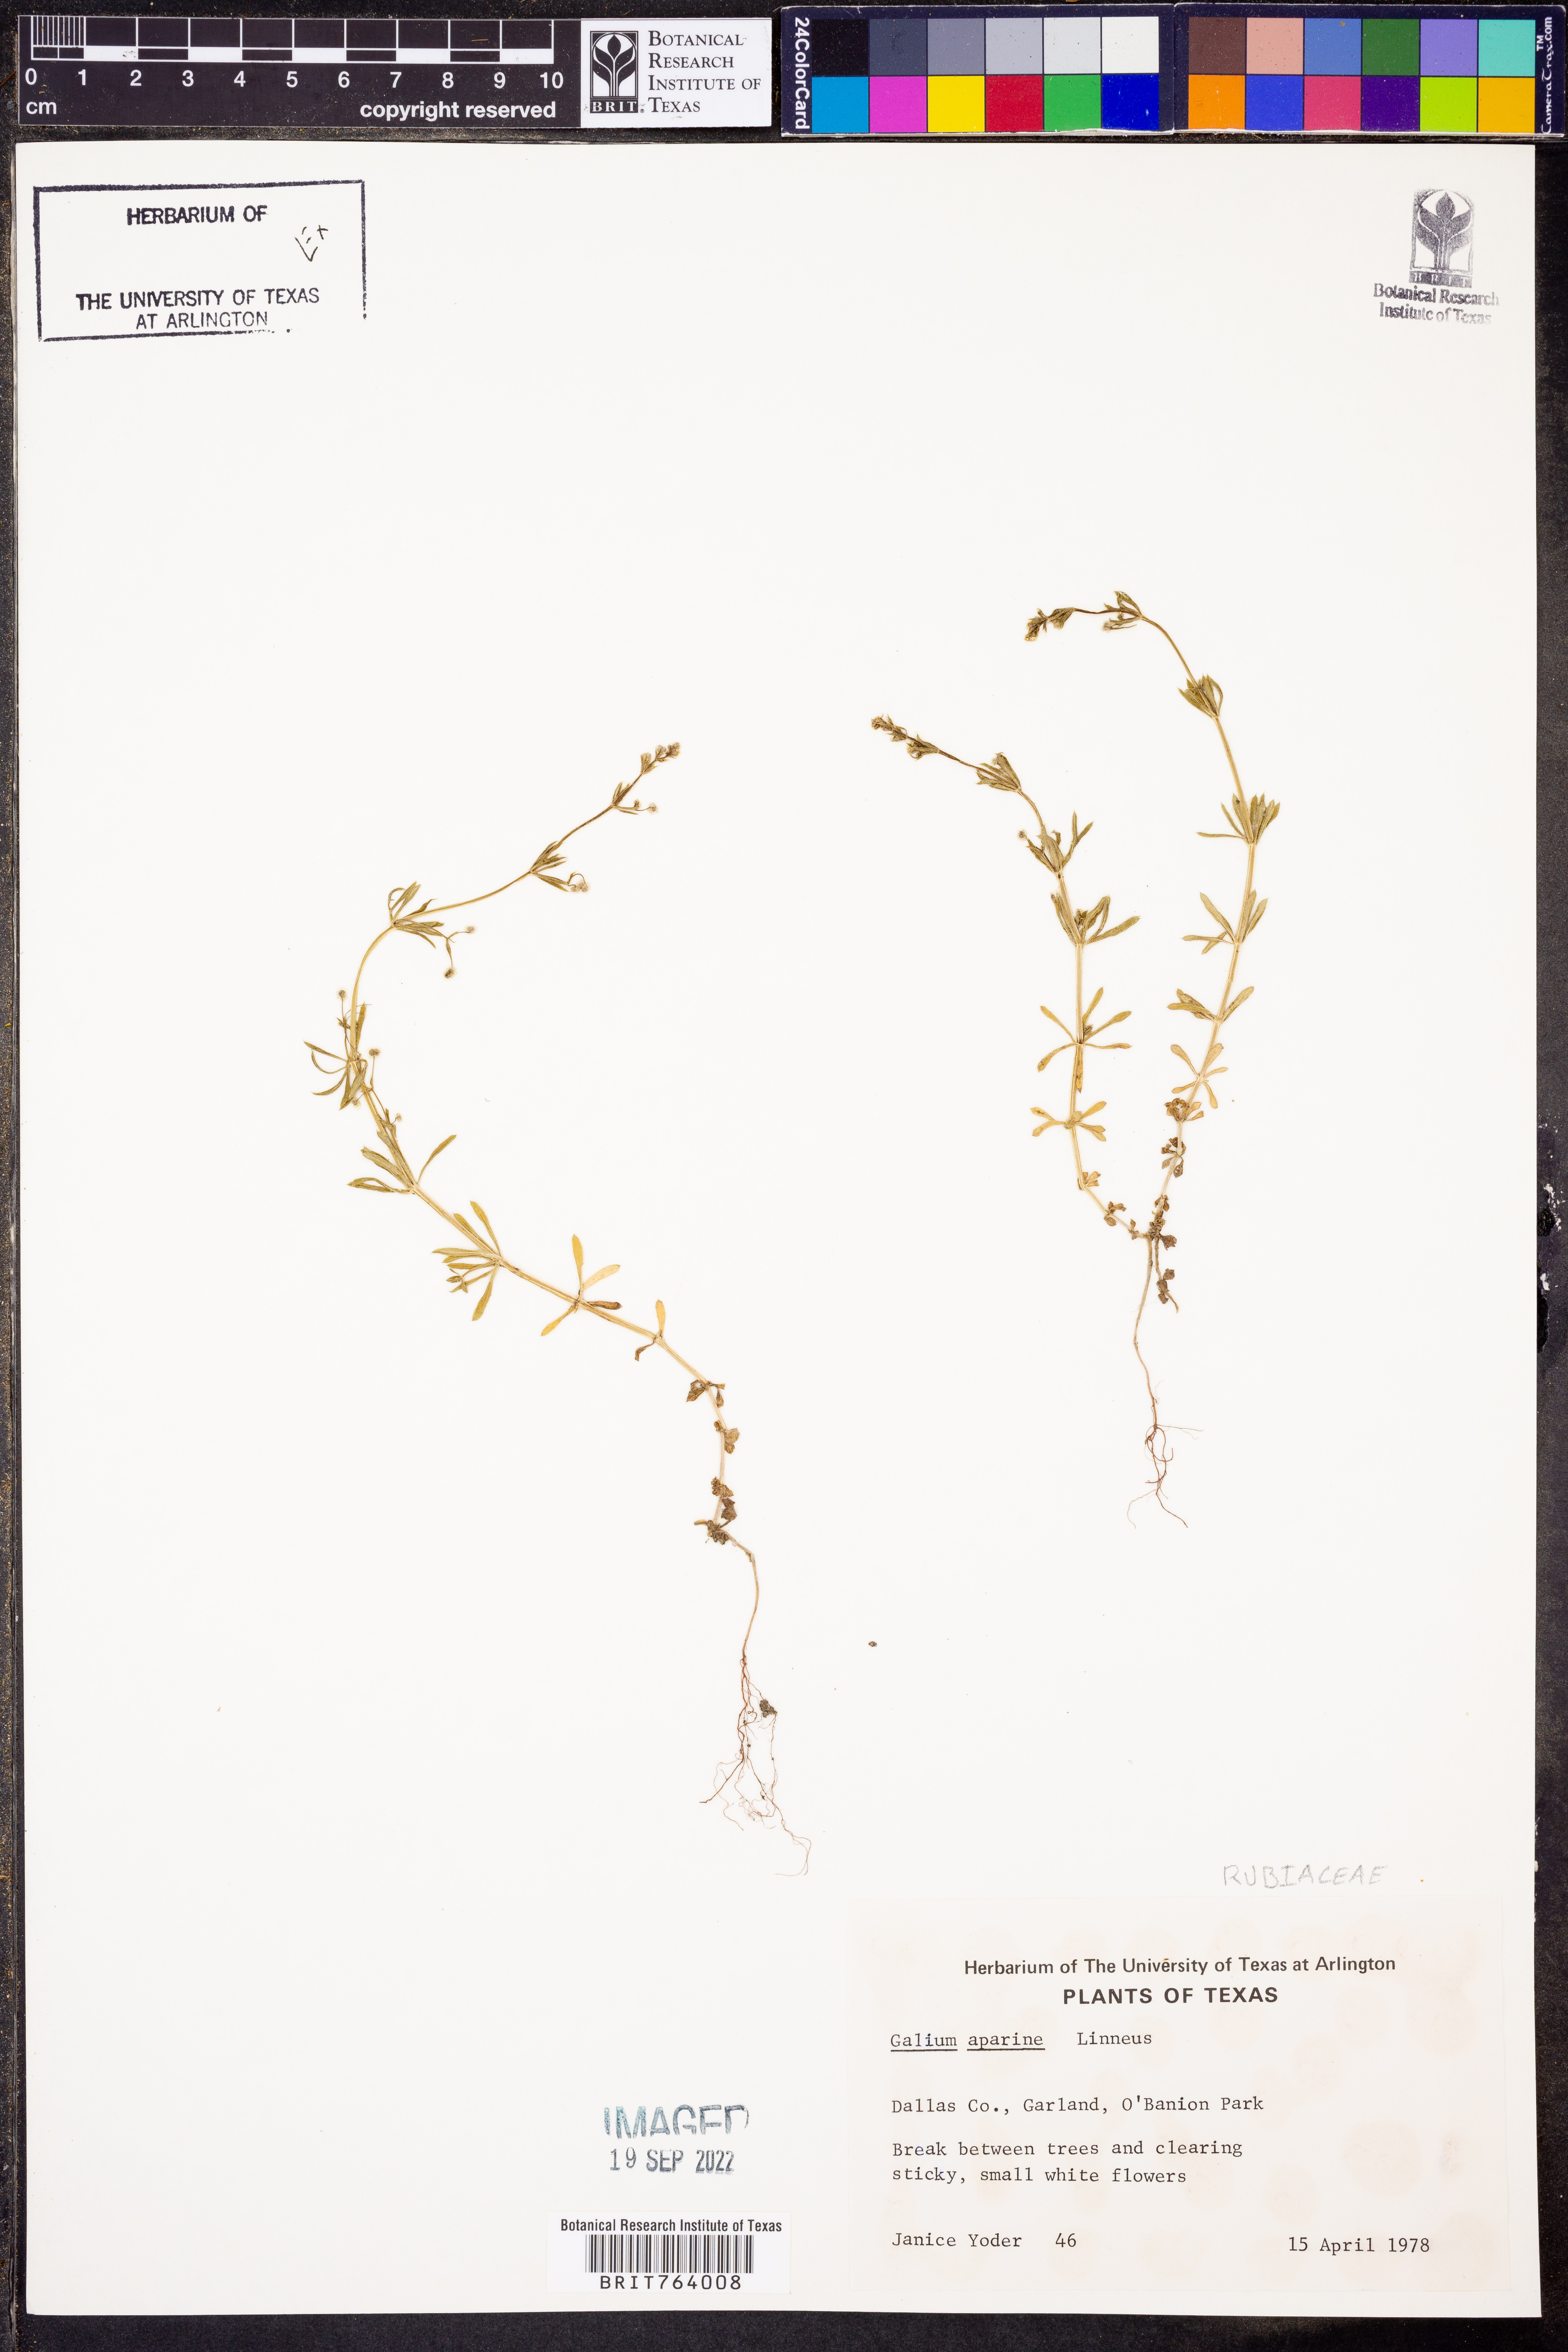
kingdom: Plantae
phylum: Tracheophyta
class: Magnoliopsida
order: Gentianales
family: Rubiaceae
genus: Galium
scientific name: Galium aparine
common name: Cleavers
